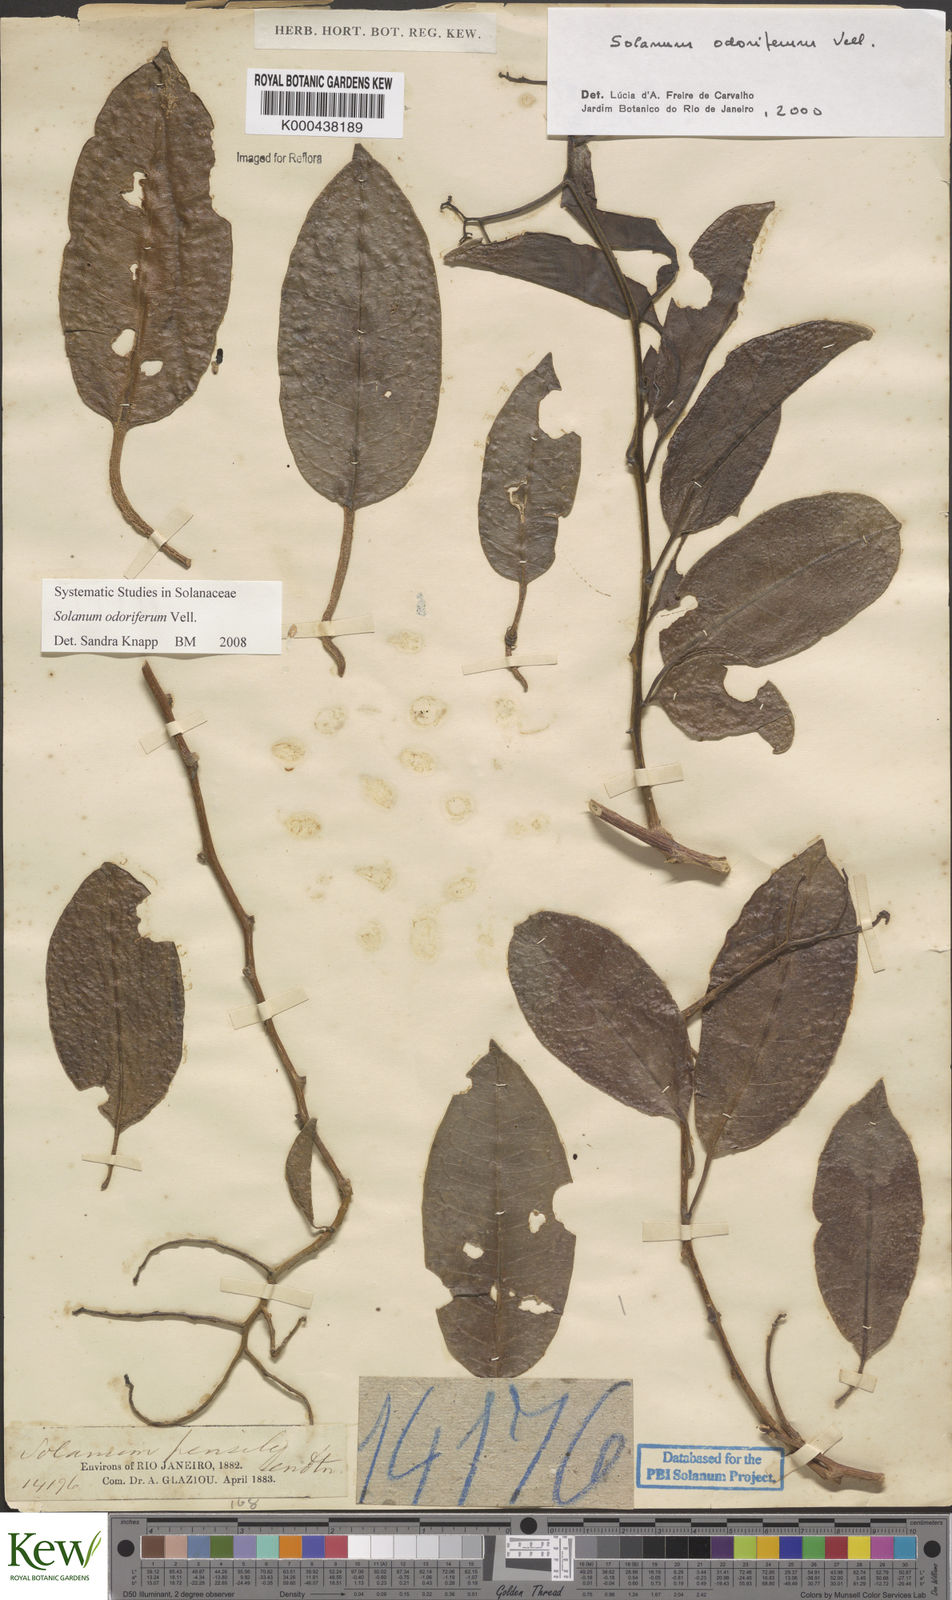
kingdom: Plantae
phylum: Tracheophyta
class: Magnoliopsida
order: Solanales
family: Solanaceae
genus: Solanum
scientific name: Solanum odoriferum
